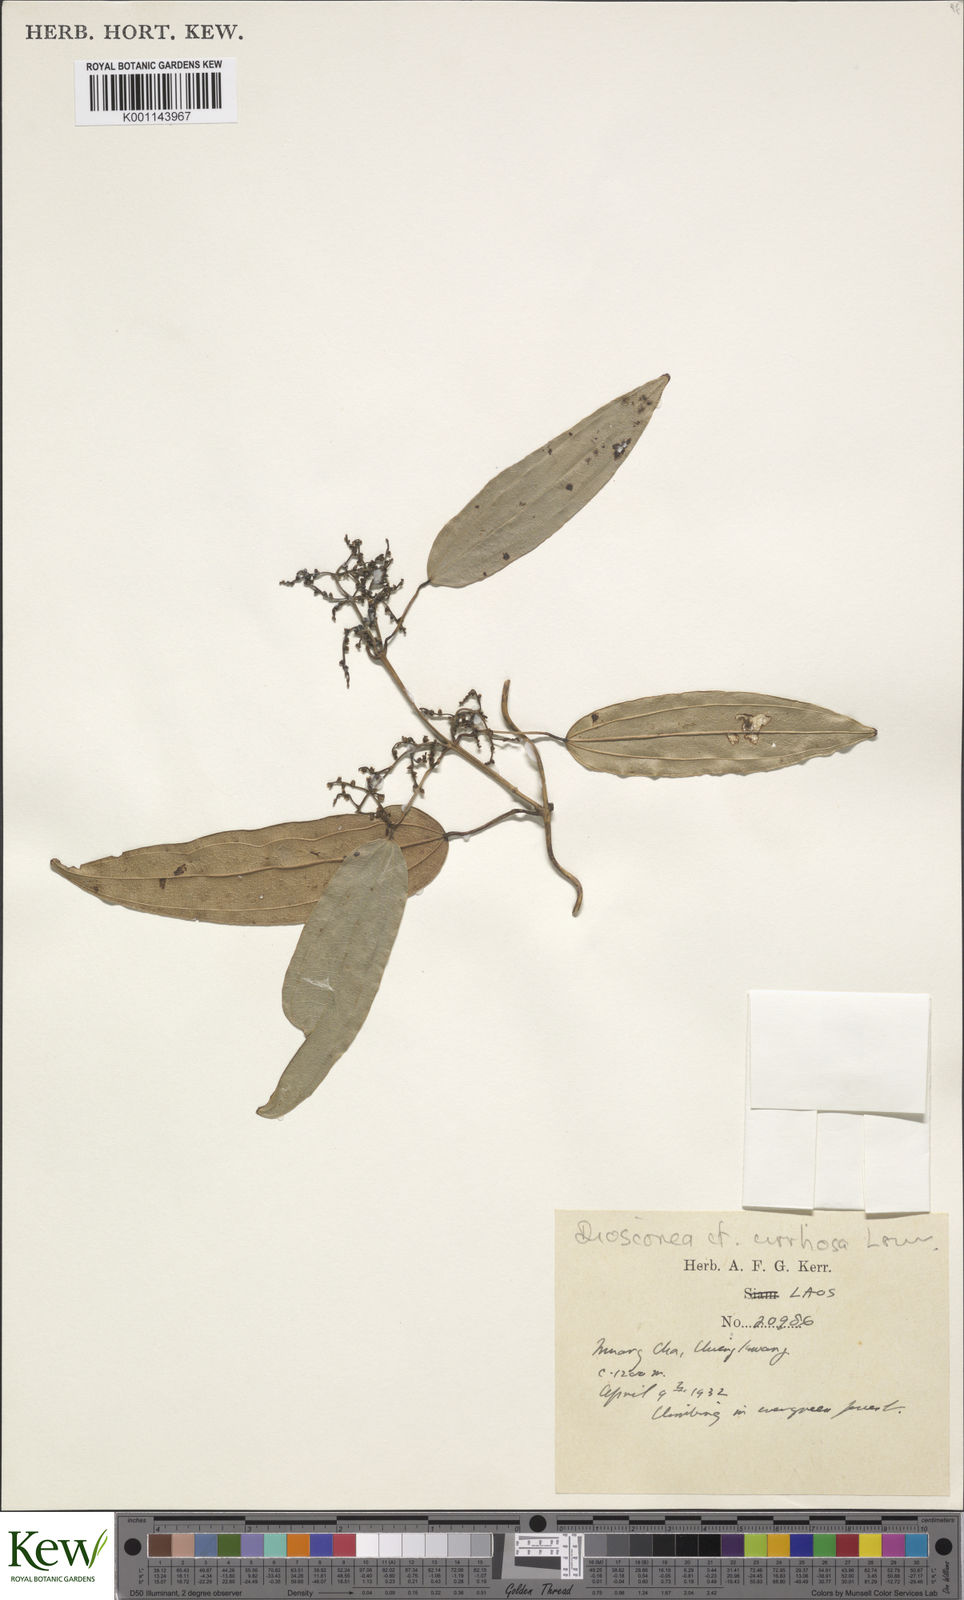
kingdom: Plantae
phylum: Tracheophyta
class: Liliopsida
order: Dioscoreales
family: Dioscoreaceae
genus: Dioscorea
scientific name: Dioscorea cirrhosa
